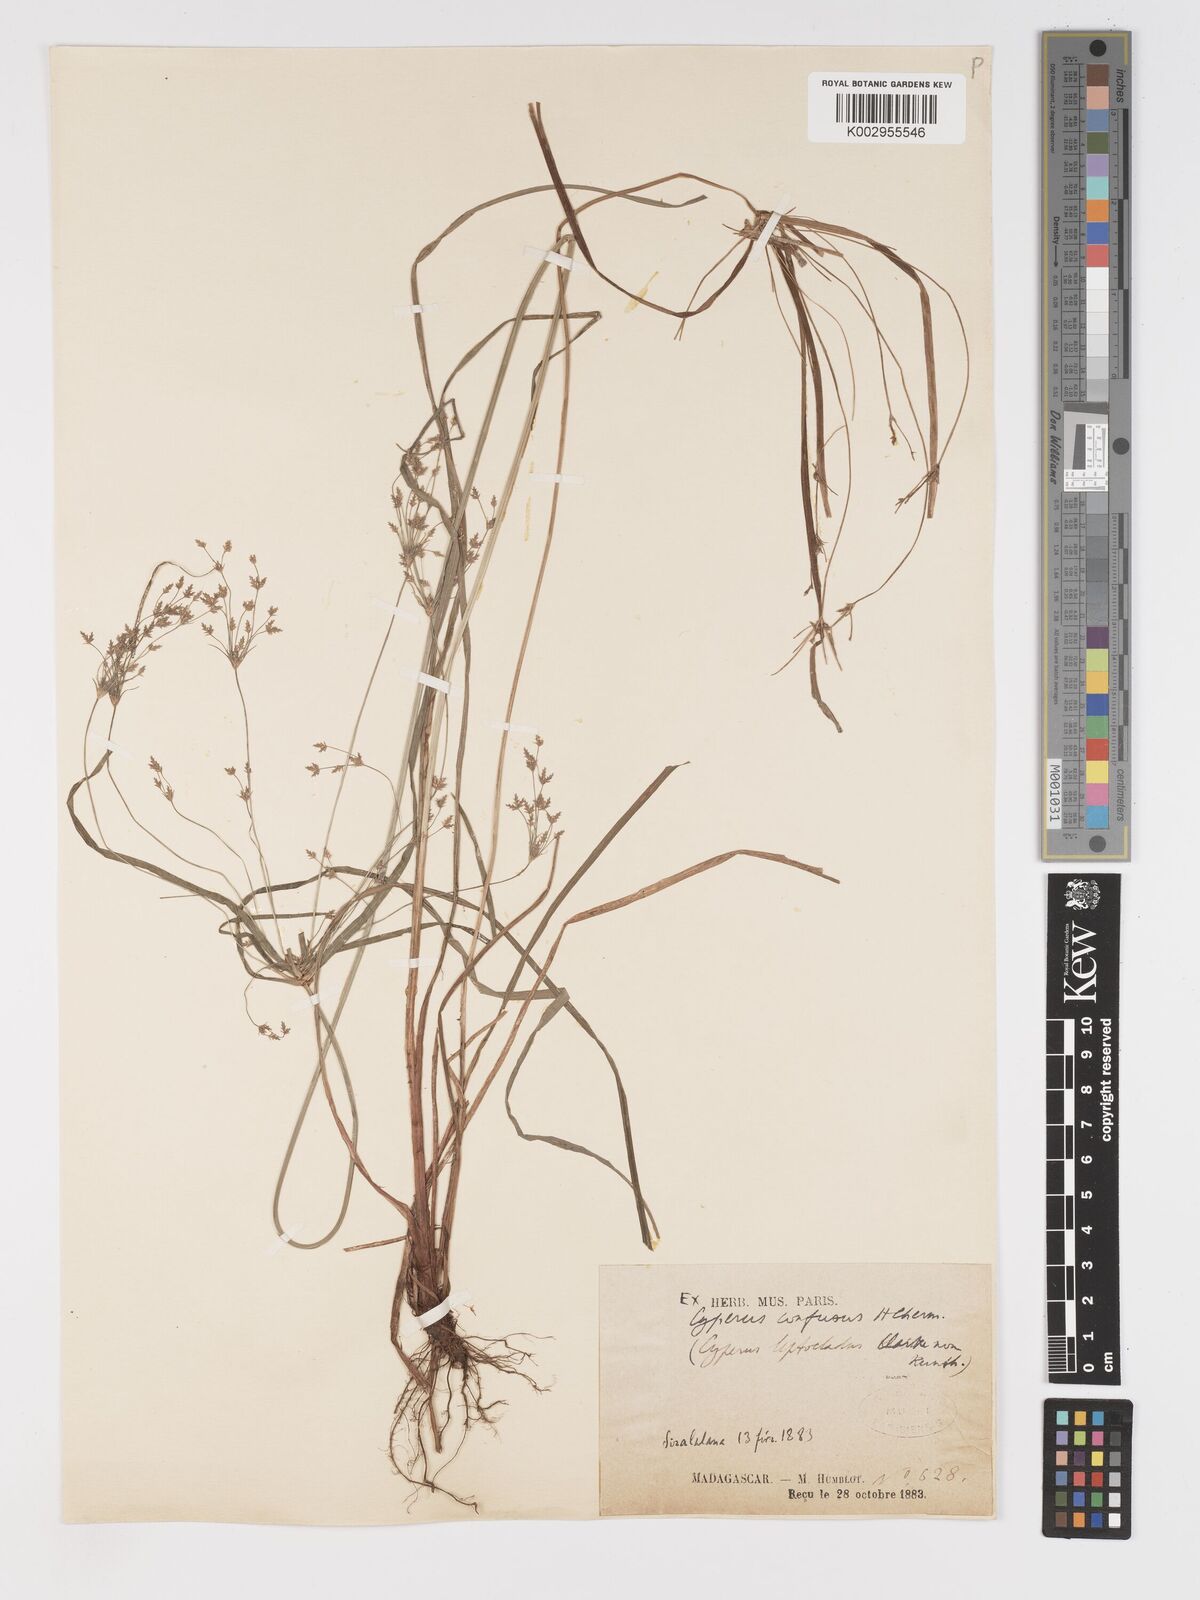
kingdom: Plantae
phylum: Tracheophyta
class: Liliopsida
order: Poales
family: Cyperaceae
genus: Cyperus
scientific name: Cyperus longifolius
